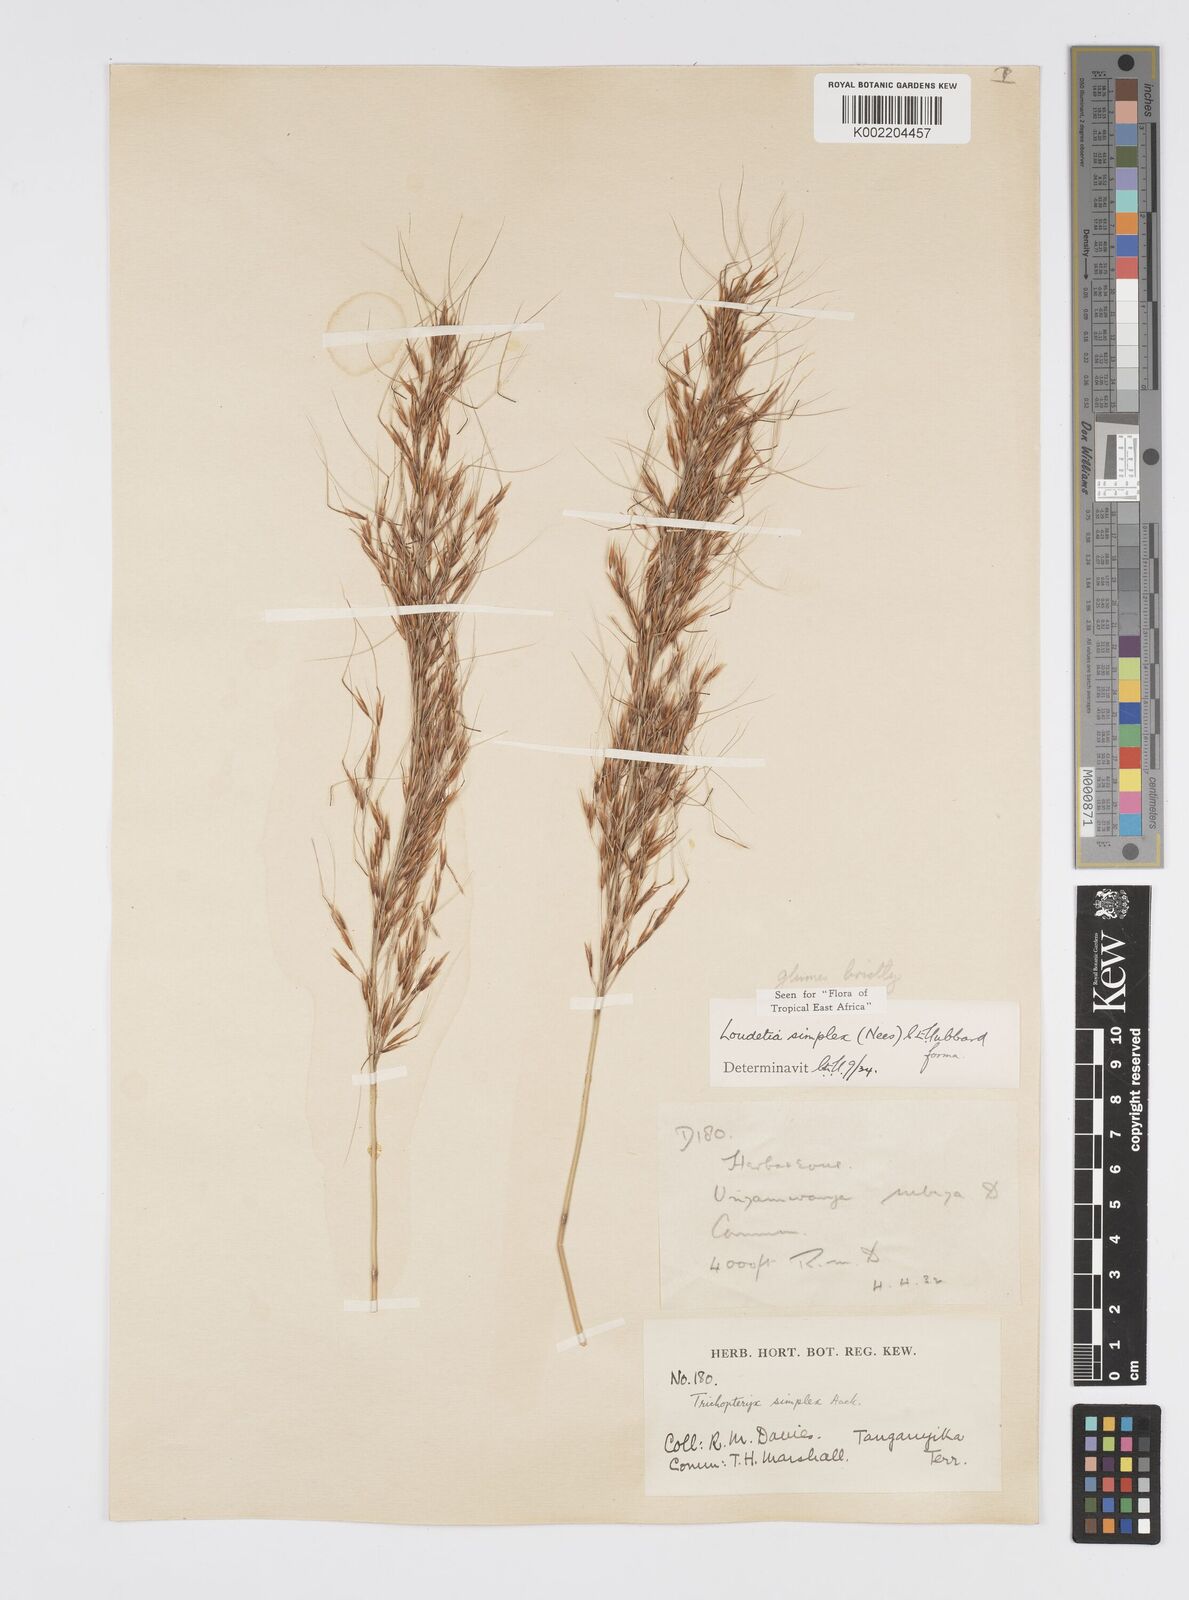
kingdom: Plantae
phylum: Tracheophyta
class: Liliopsida
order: Poales
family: Poaceae
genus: Loudetia
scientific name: Loudetia simplex
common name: Common russet grass
